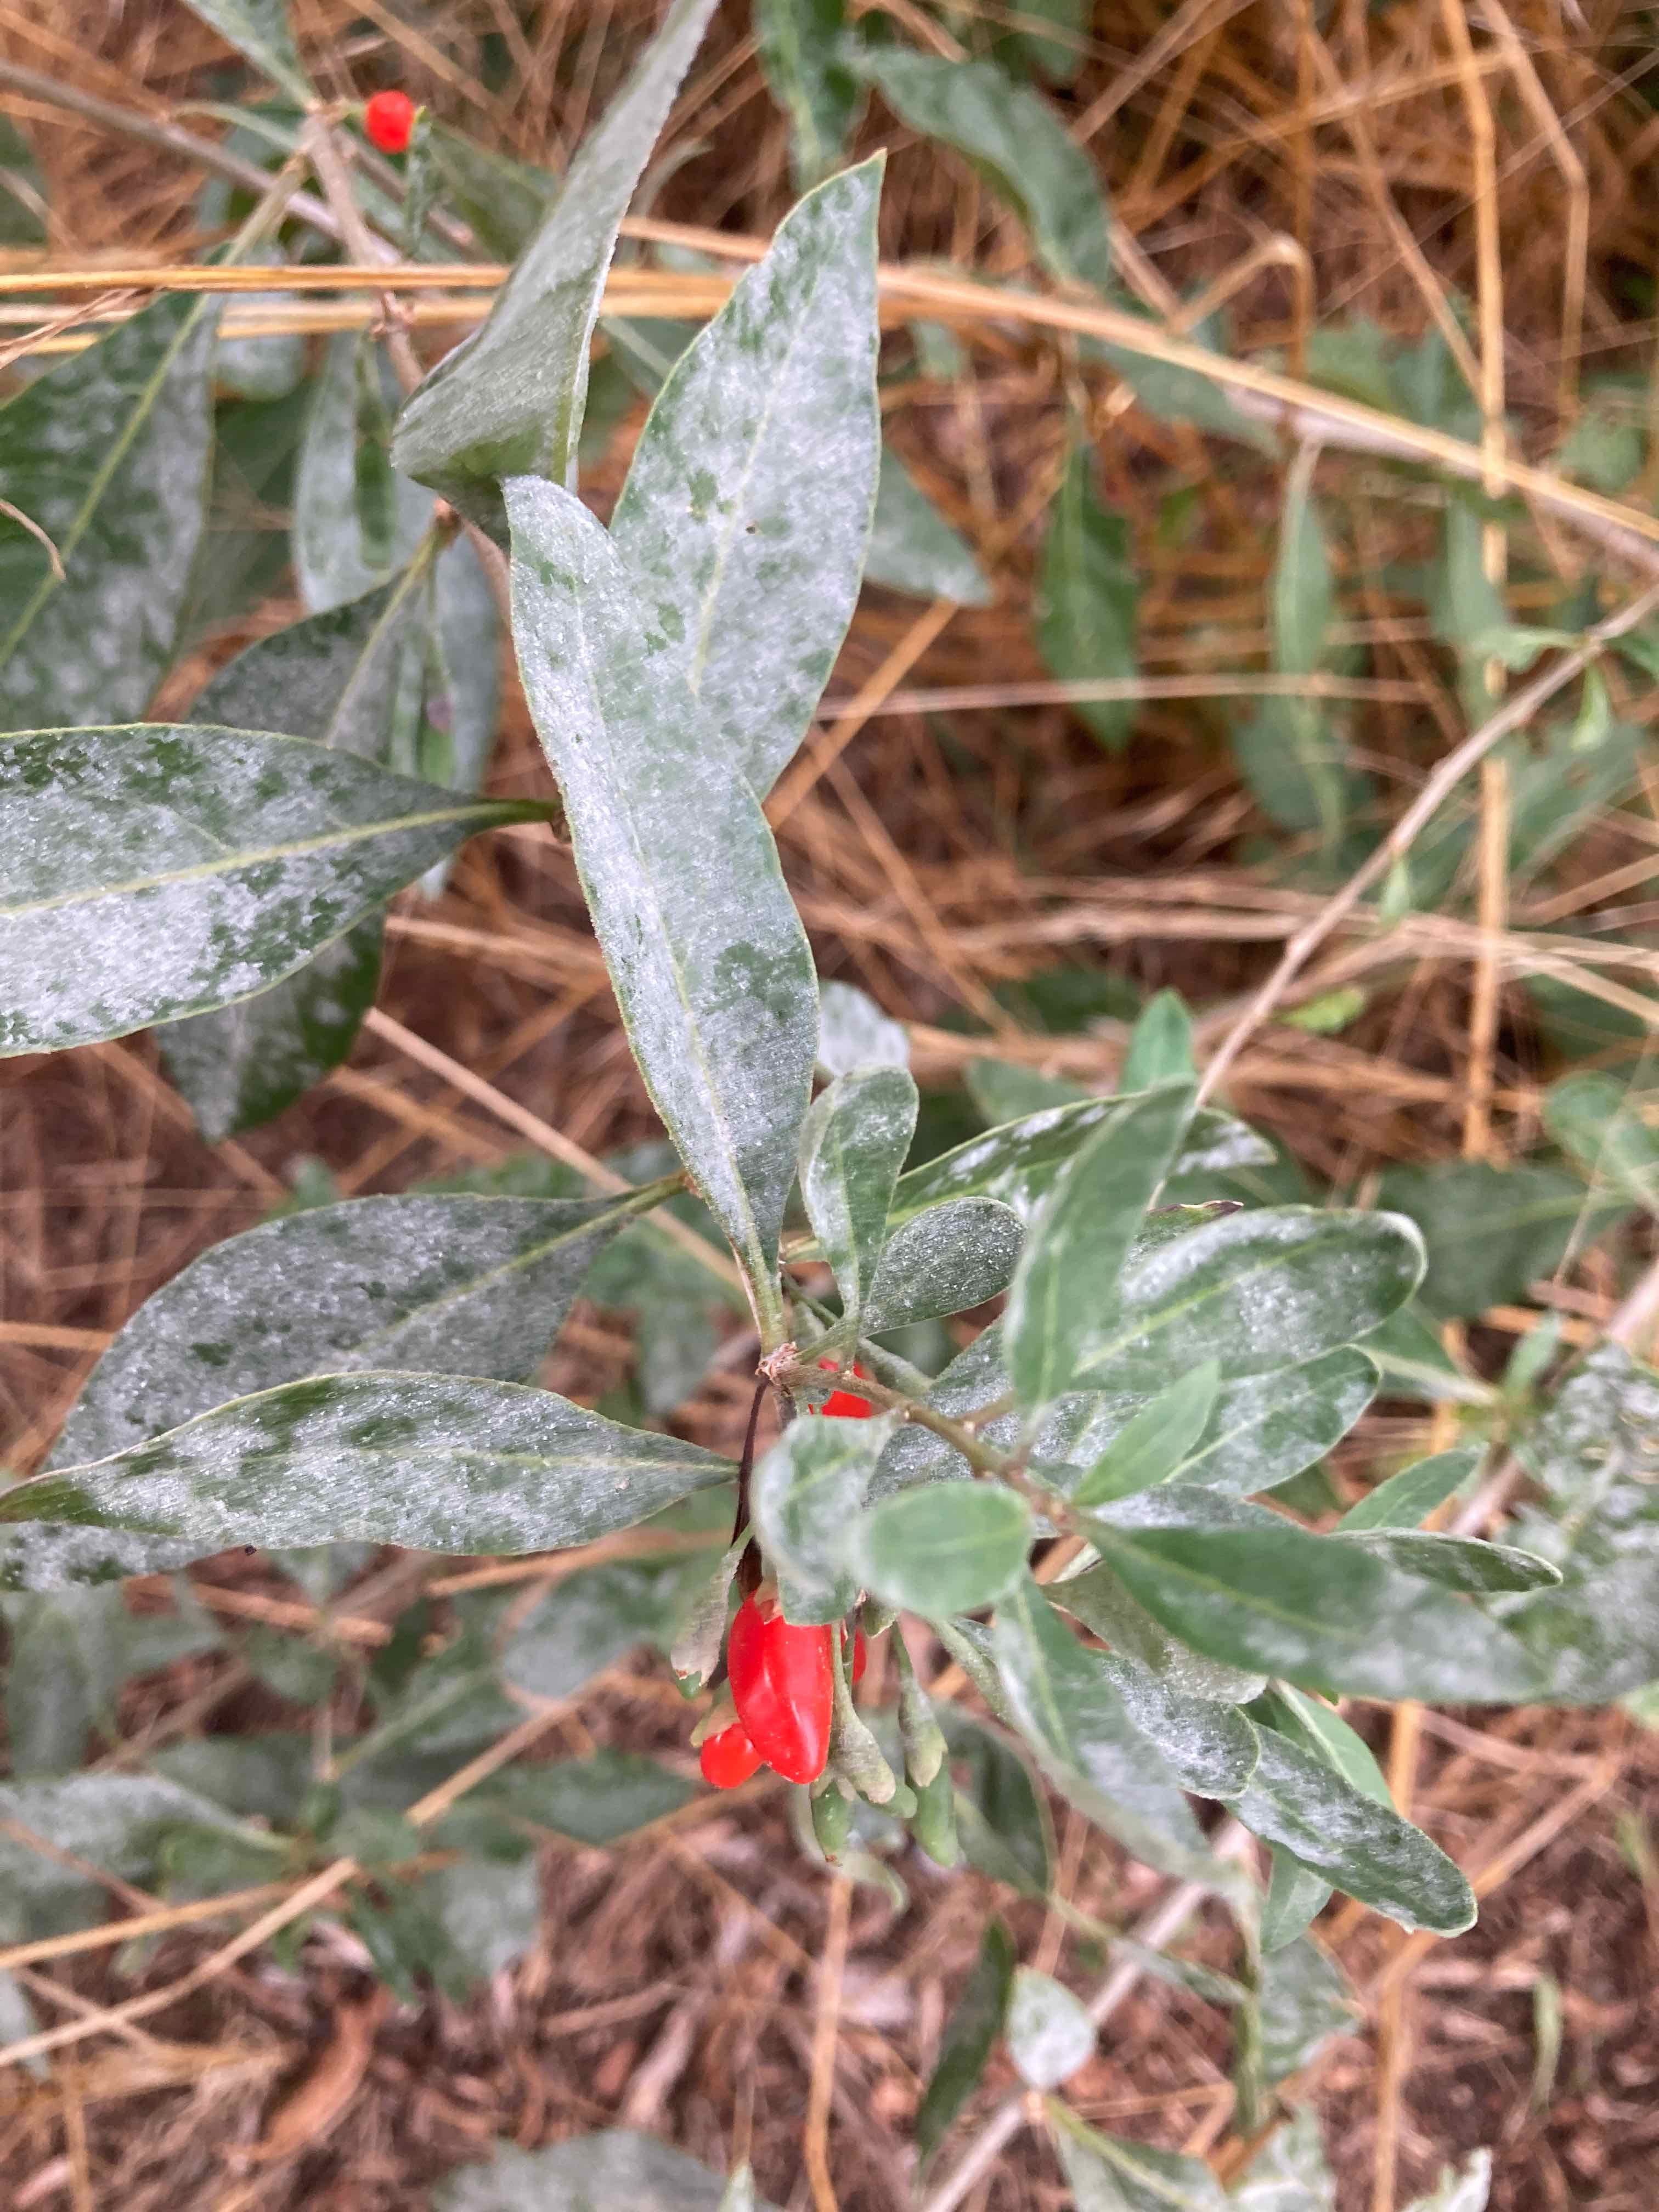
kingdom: Fungi
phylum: Ascomycota
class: Leotiomycetes
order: Helotiales
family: Erysiphaceae
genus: Erysiphe
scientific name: Erysiphe mougeotii
